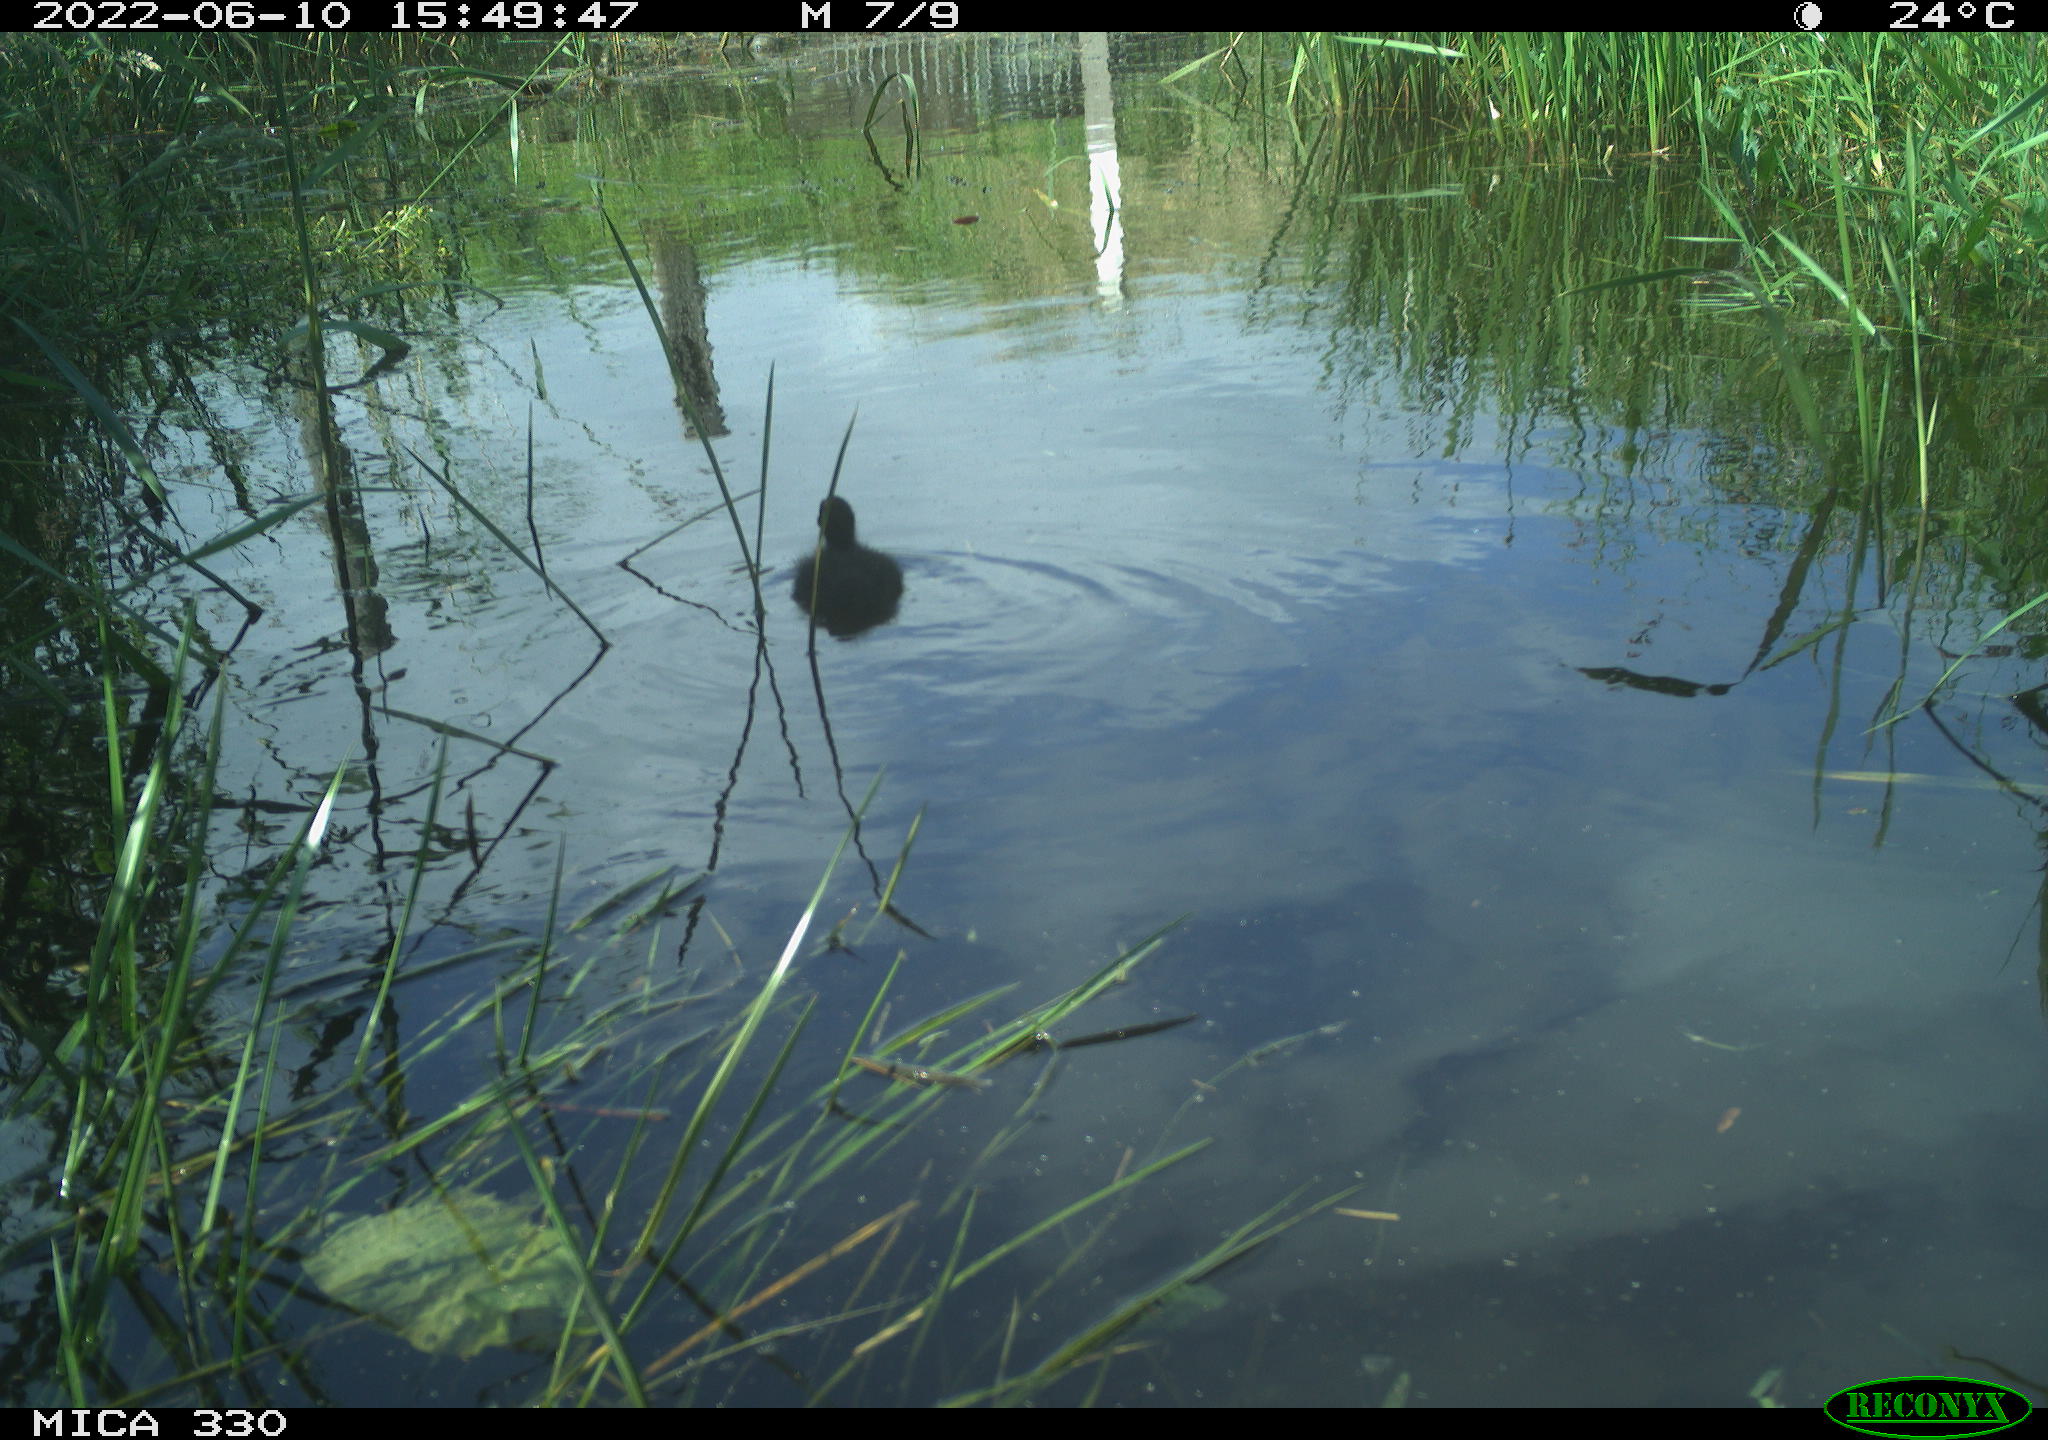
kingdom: Animalia
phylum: Chordata
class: Aves
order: Gruiformes
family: Rallidae
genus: Fulica
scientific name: Fulica atra
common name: Eurasian coot
